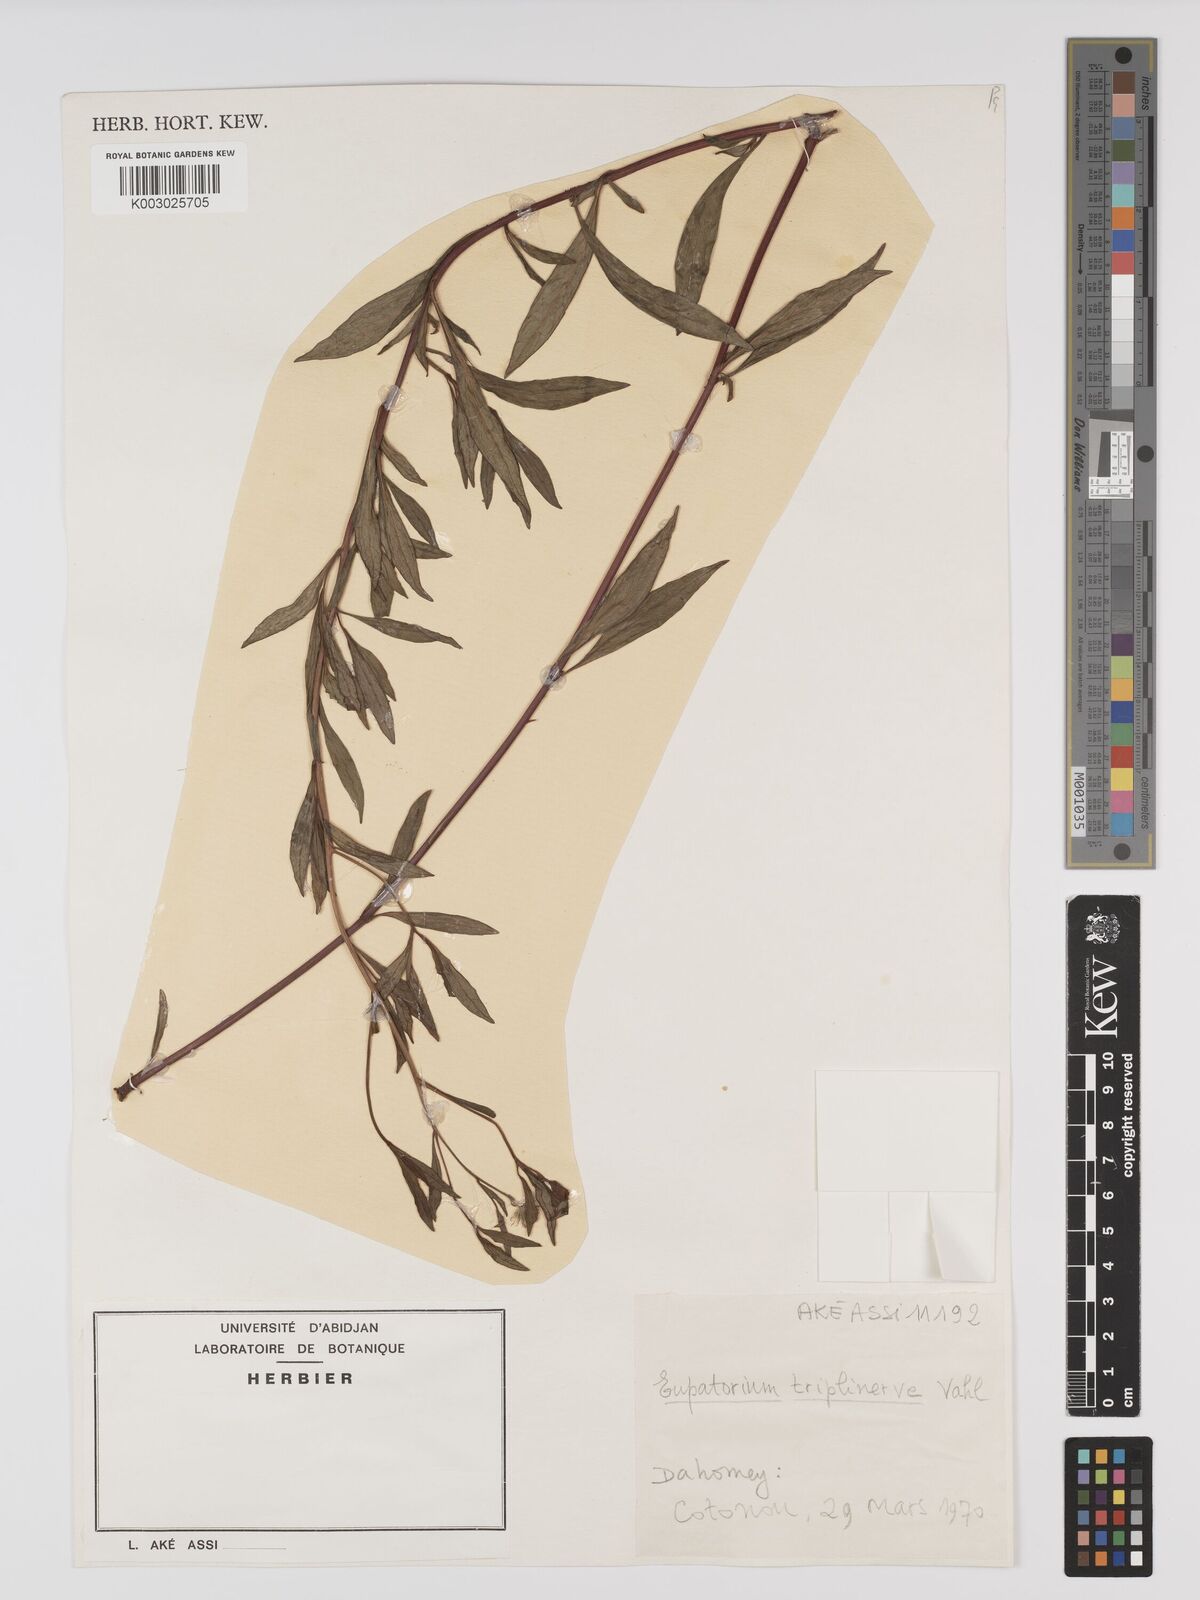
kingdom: Plantae
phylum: Tracheophyta
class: Magnoliopsida
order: Asterales
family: Asteraceae
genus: Ayapana
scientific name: Ayapana triplinervis
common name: Triplinerved eupatorium
